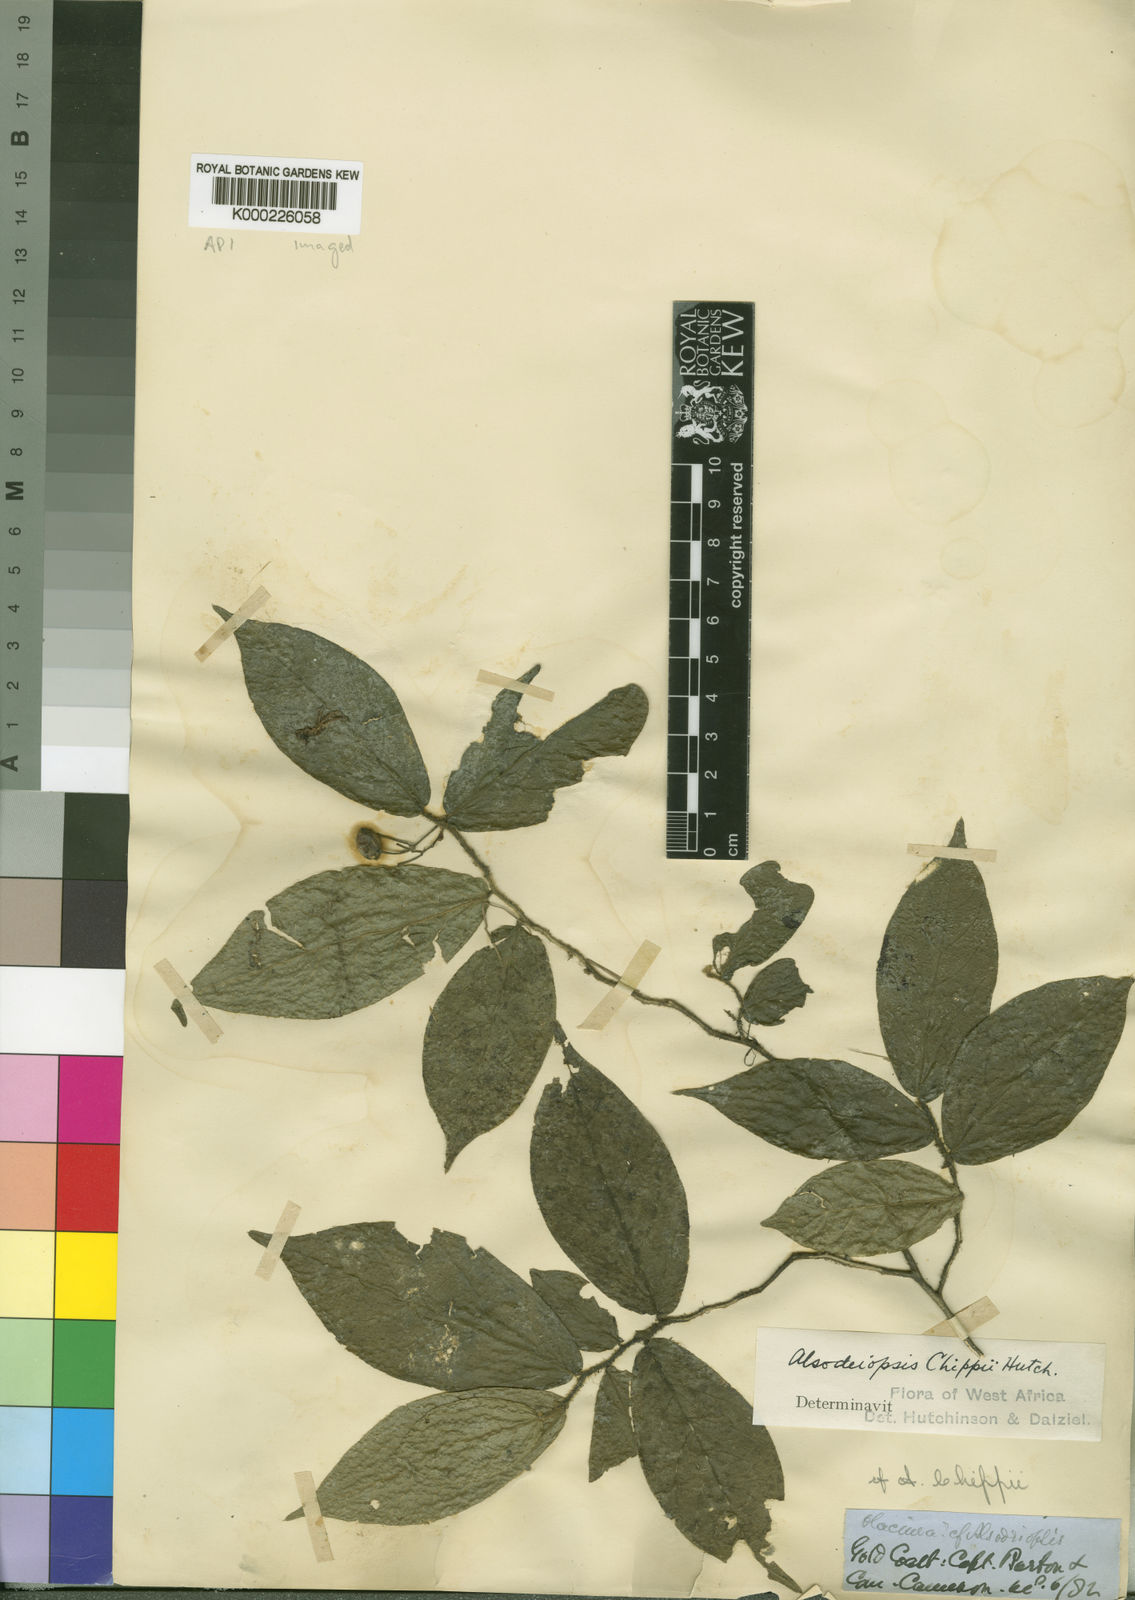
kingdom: Plantae
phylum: Tracheophyta
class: Magnoliopsida
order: Icacinales
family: Icacinaceae
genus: Alsodeiopsis
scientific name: Alsodeiopsis chippii
